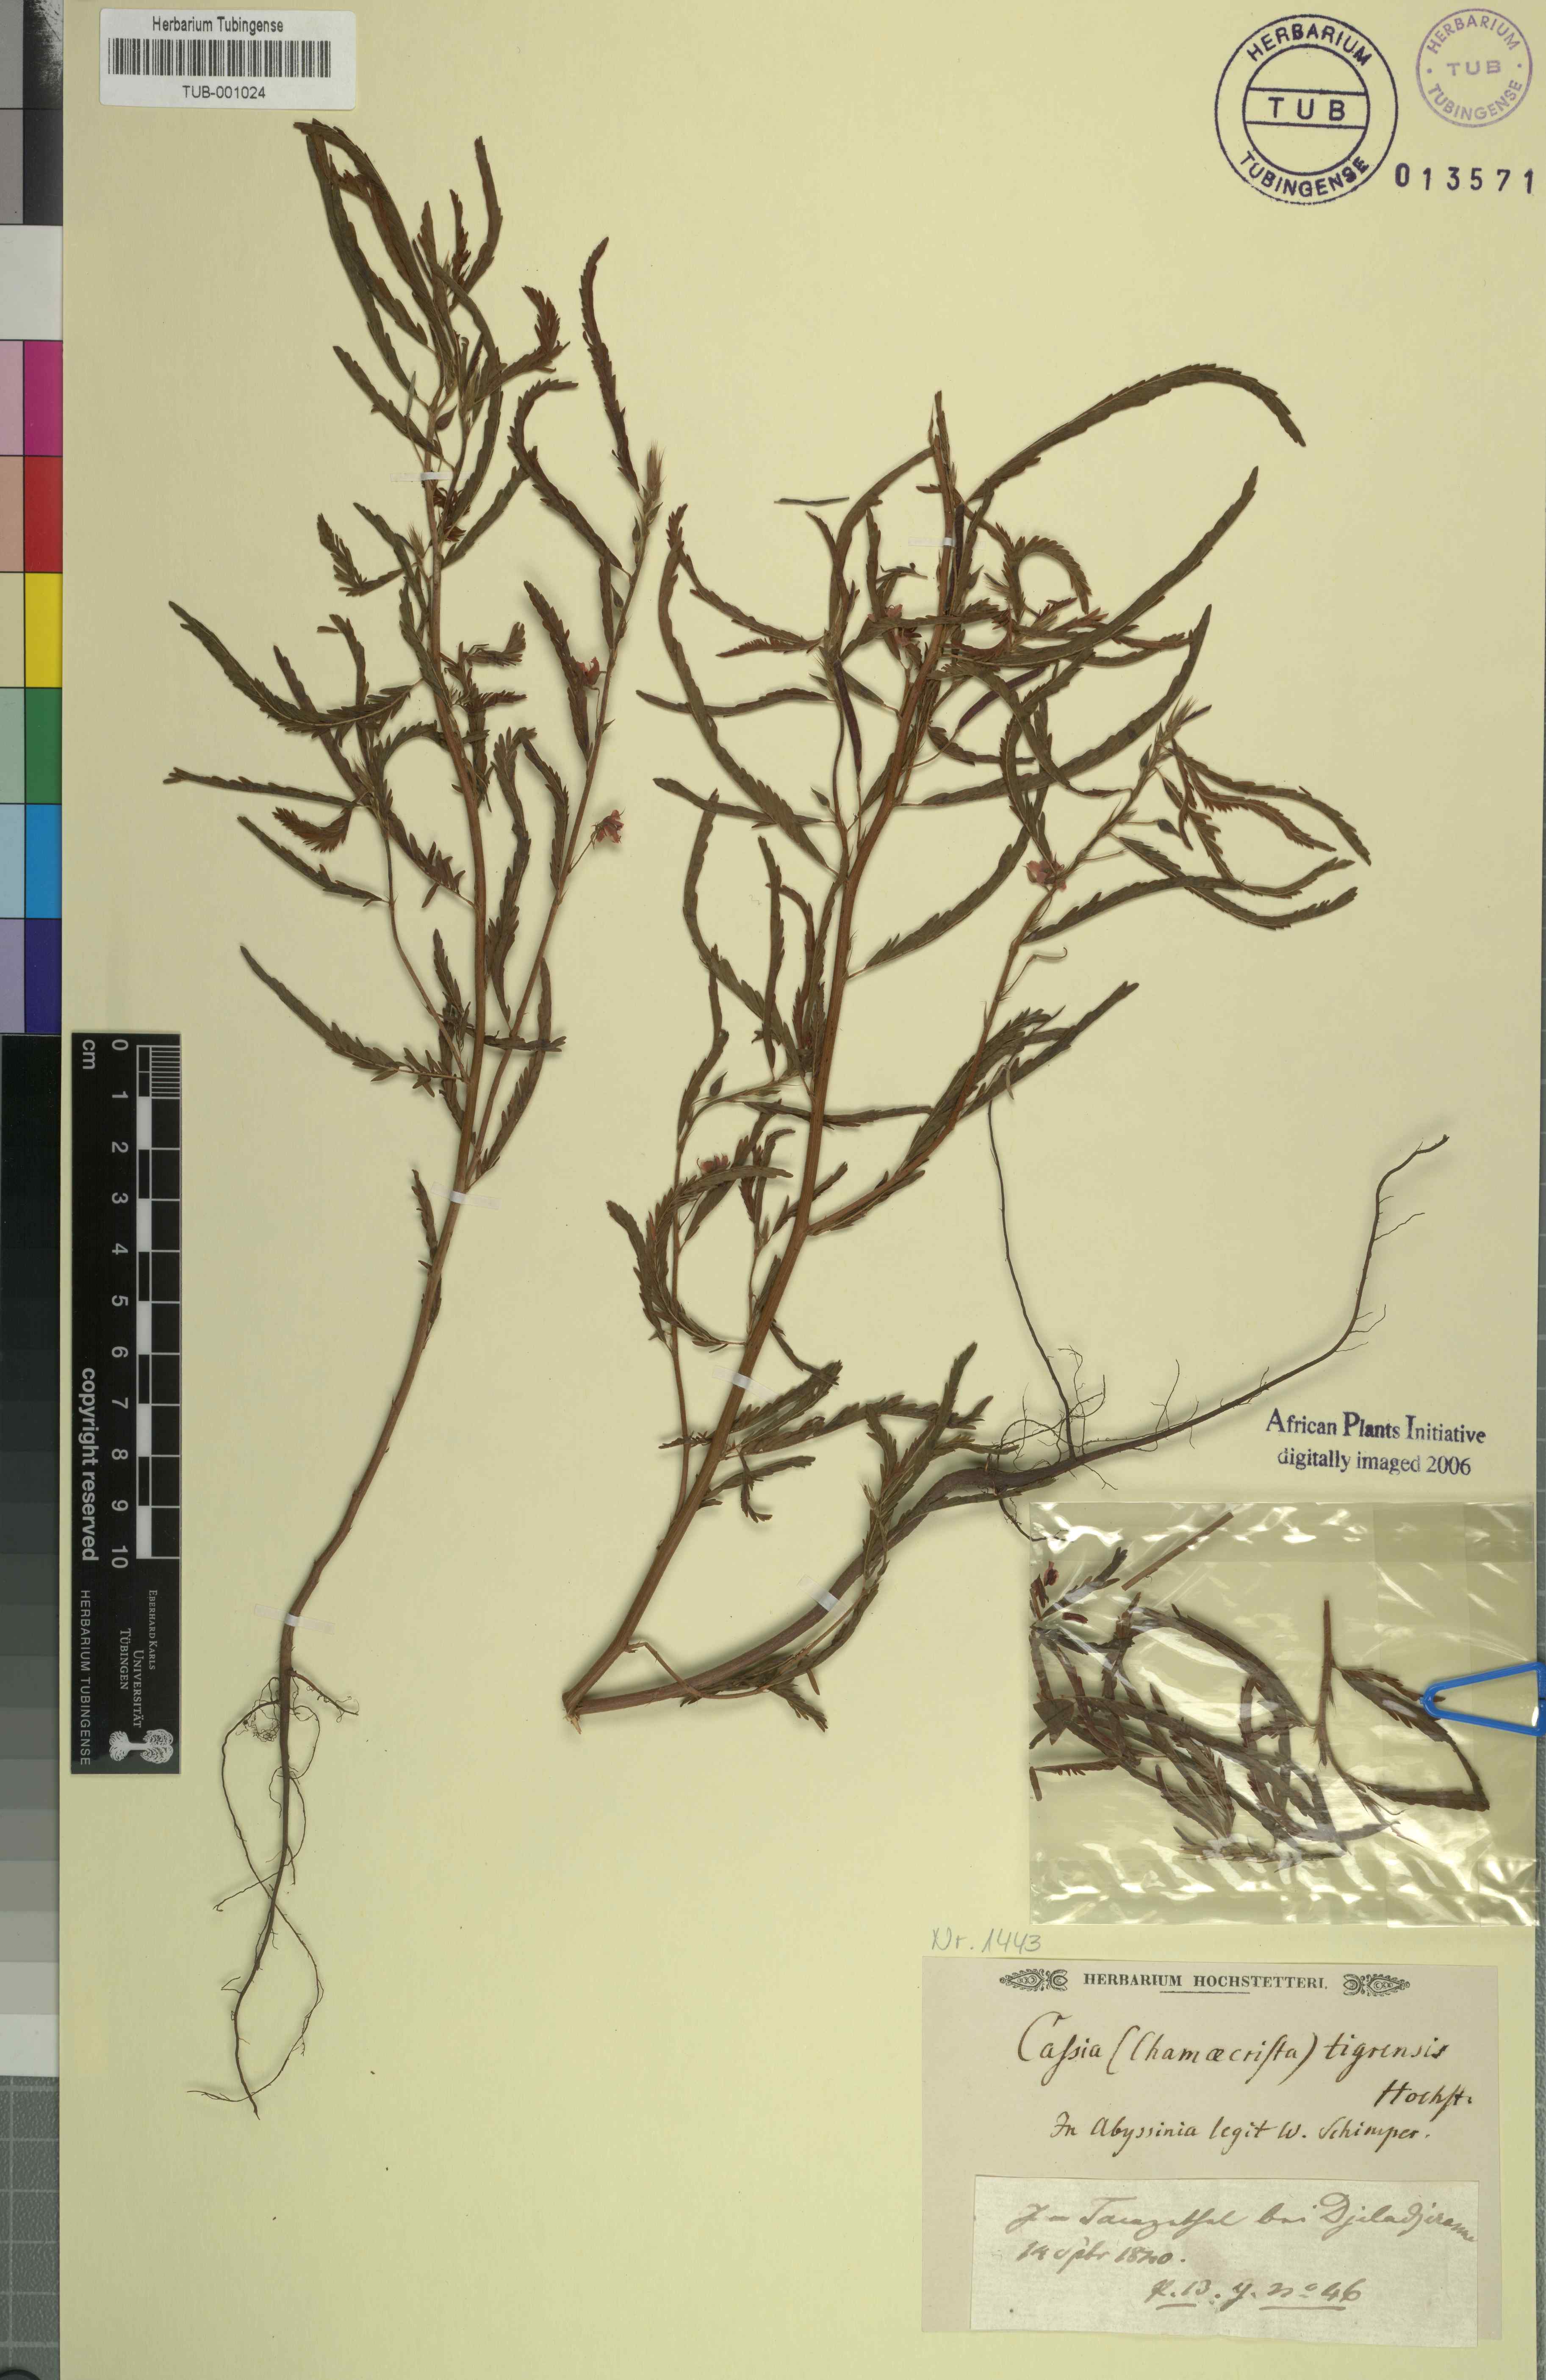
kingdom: Plantae
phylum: Tracheophyta
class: Magnoliopsida
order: Fabales
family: Fabaceae
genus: Cassia
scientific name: Cassia
